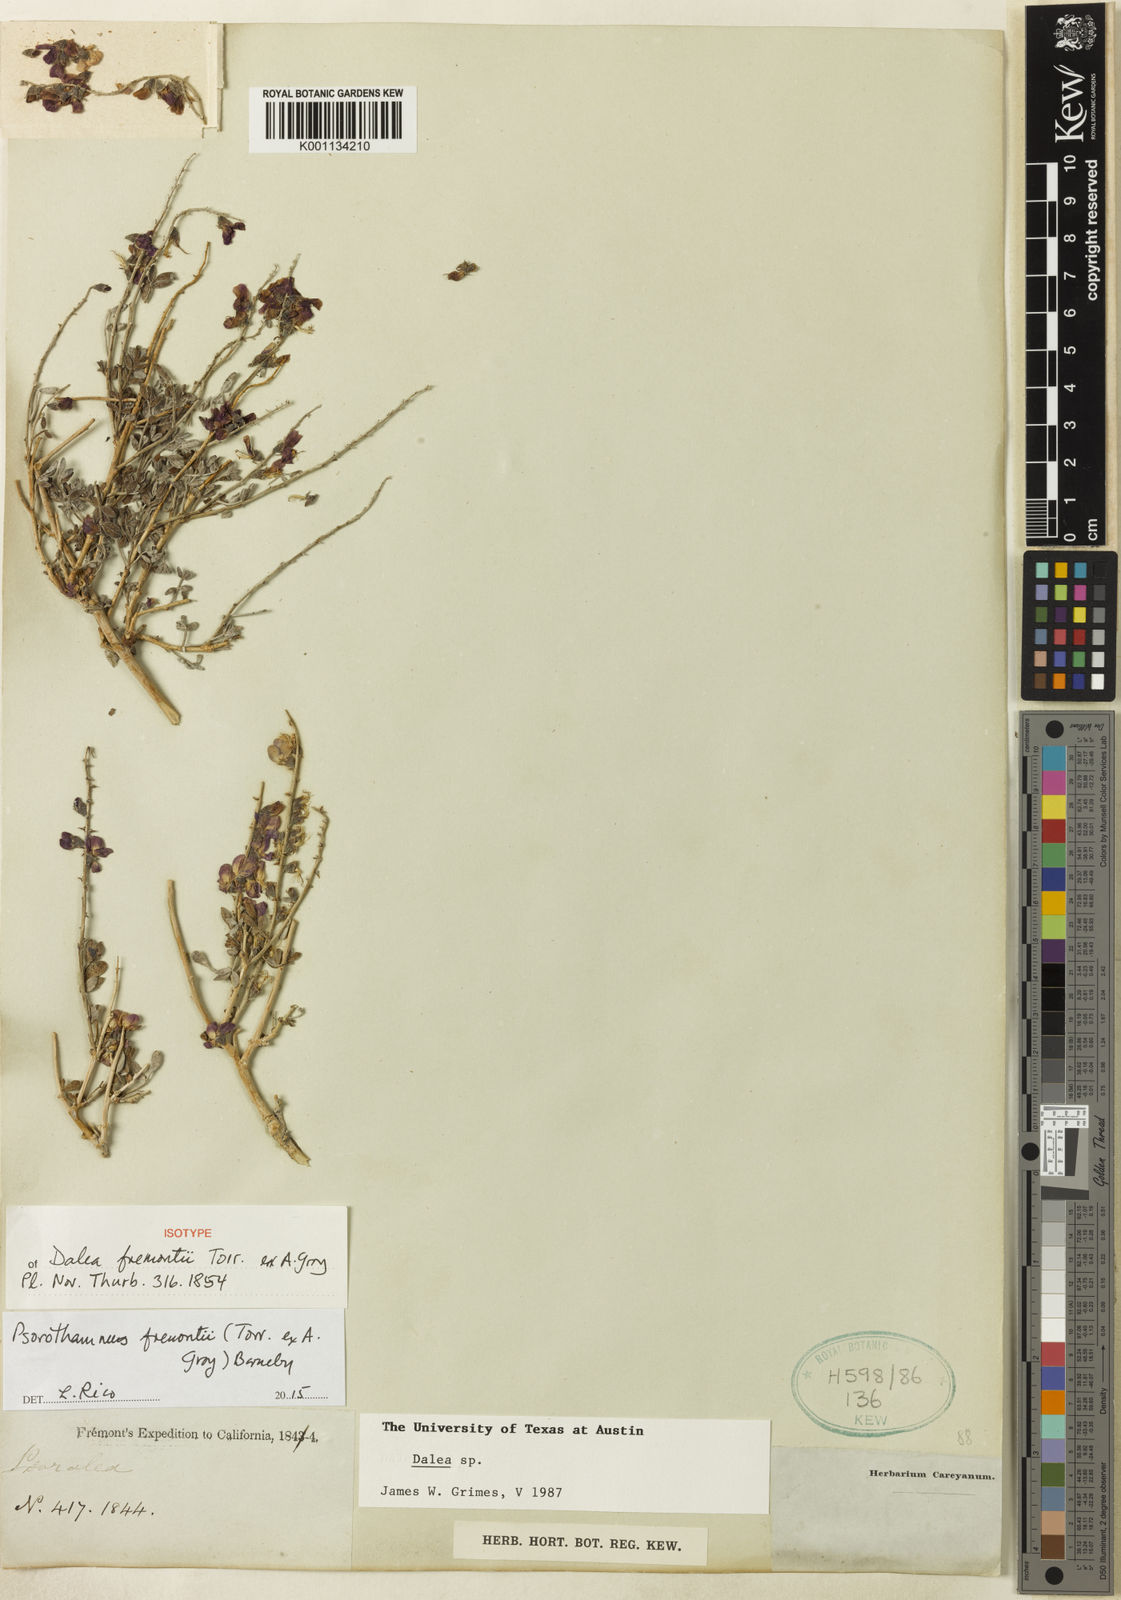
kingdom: Plantae
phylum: Tracheophyta
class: Magnoliopsida
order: Fabales
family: Fabaceae
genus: Psorothamnus
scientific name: Psorothamnus fremontii
